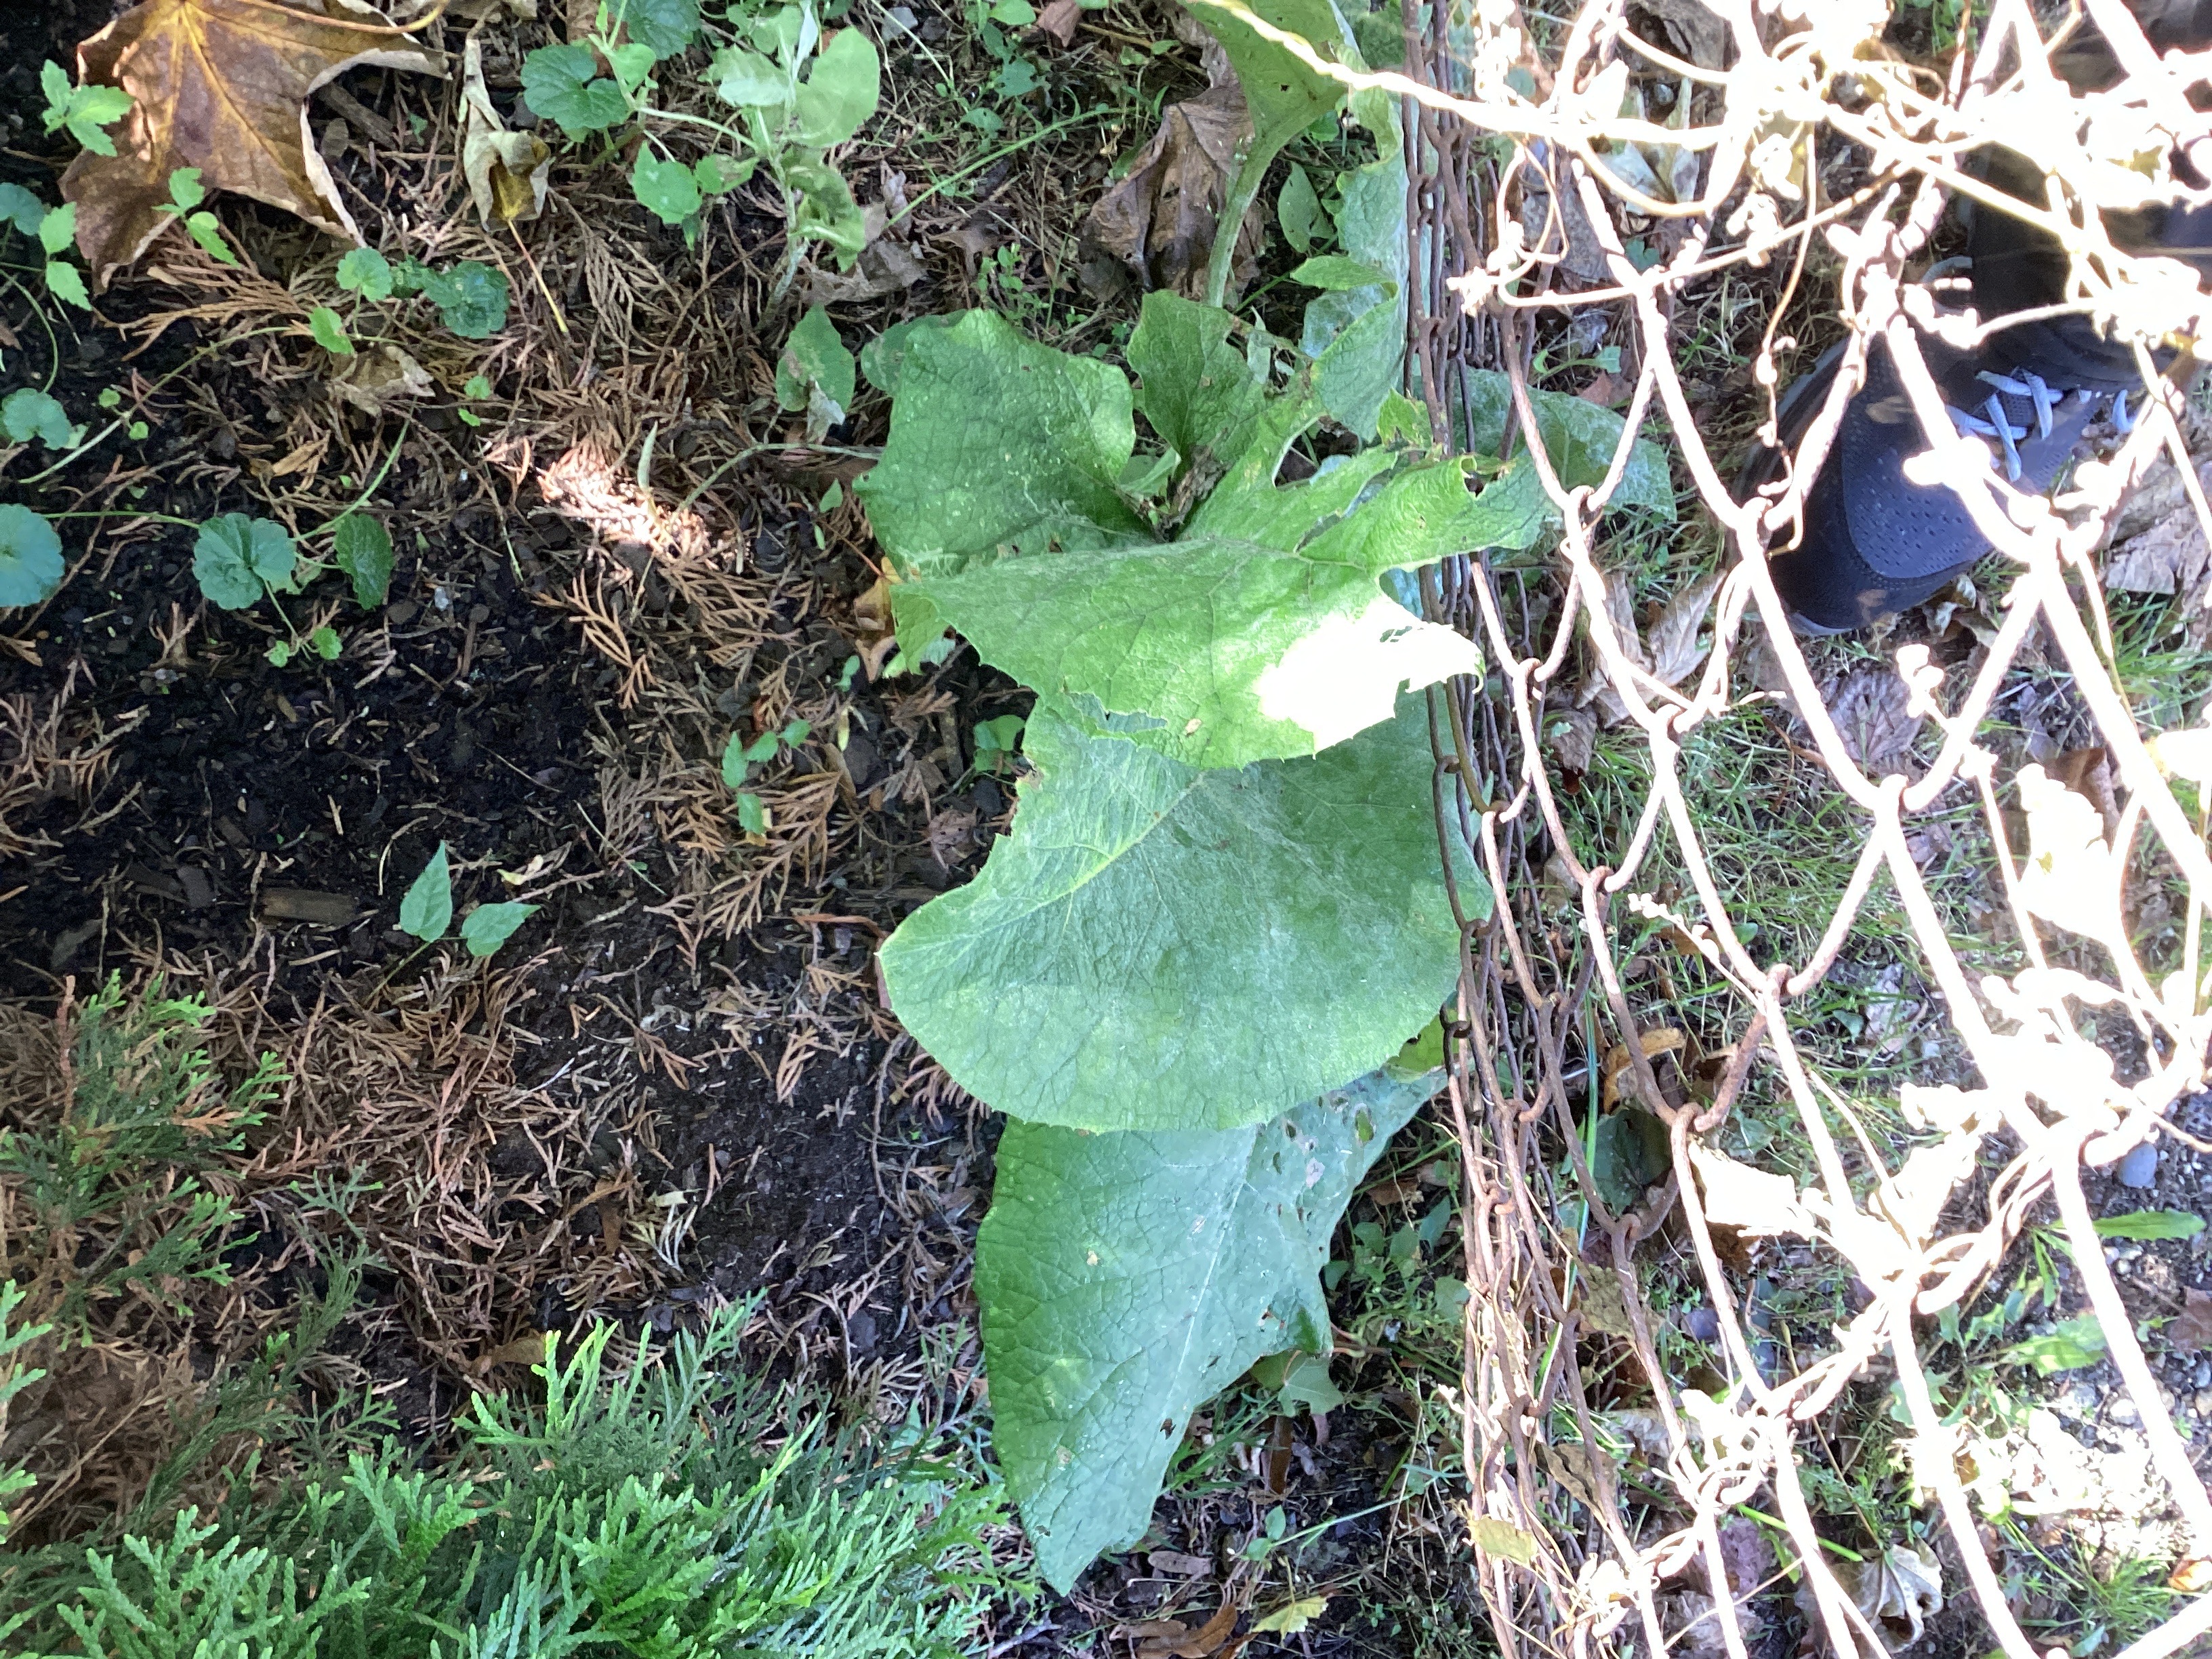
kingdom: Plantae
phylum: Tracheophyta
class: Magnoliopsida
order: Asterales
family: Asteraceae
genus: Arctium
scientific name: Arctium tomentosum
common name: ullborre
